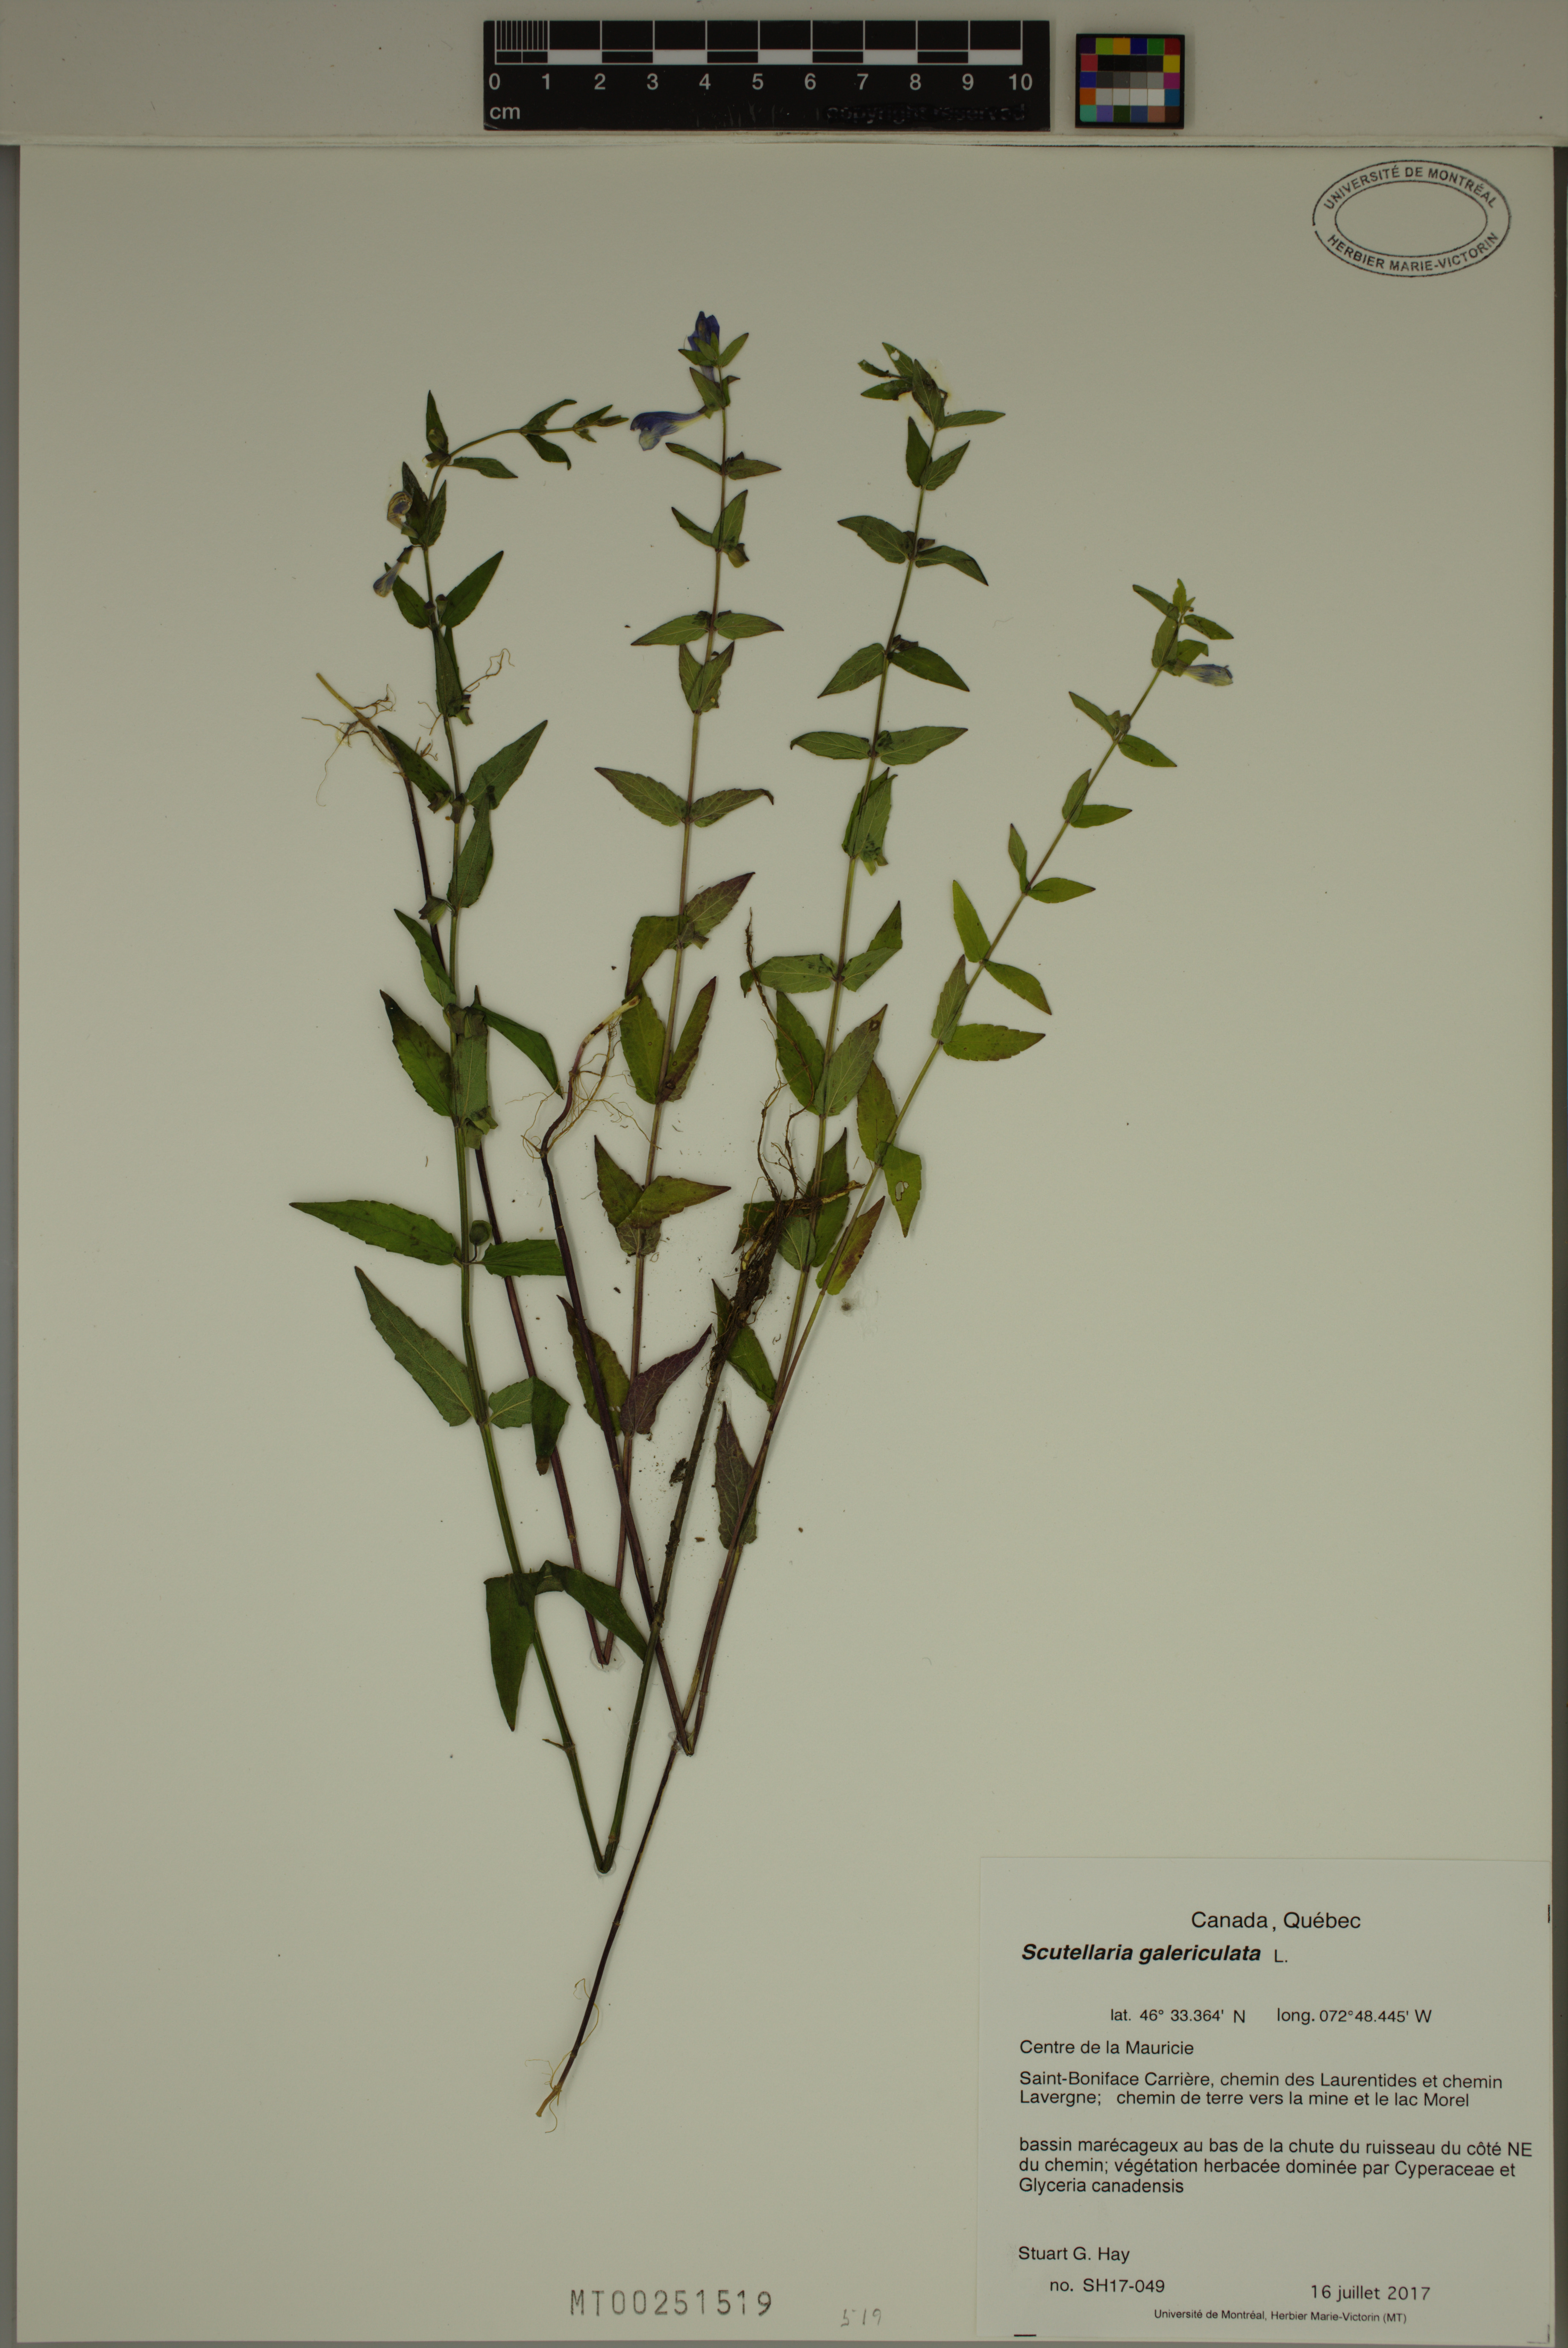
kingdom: Plantae
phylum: Tracheophyta
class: Magnoliopsida
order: Lamiales
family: Lamiaceae
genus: Scutellaria
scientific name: Scutellaria galericulata
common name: Skullcap
